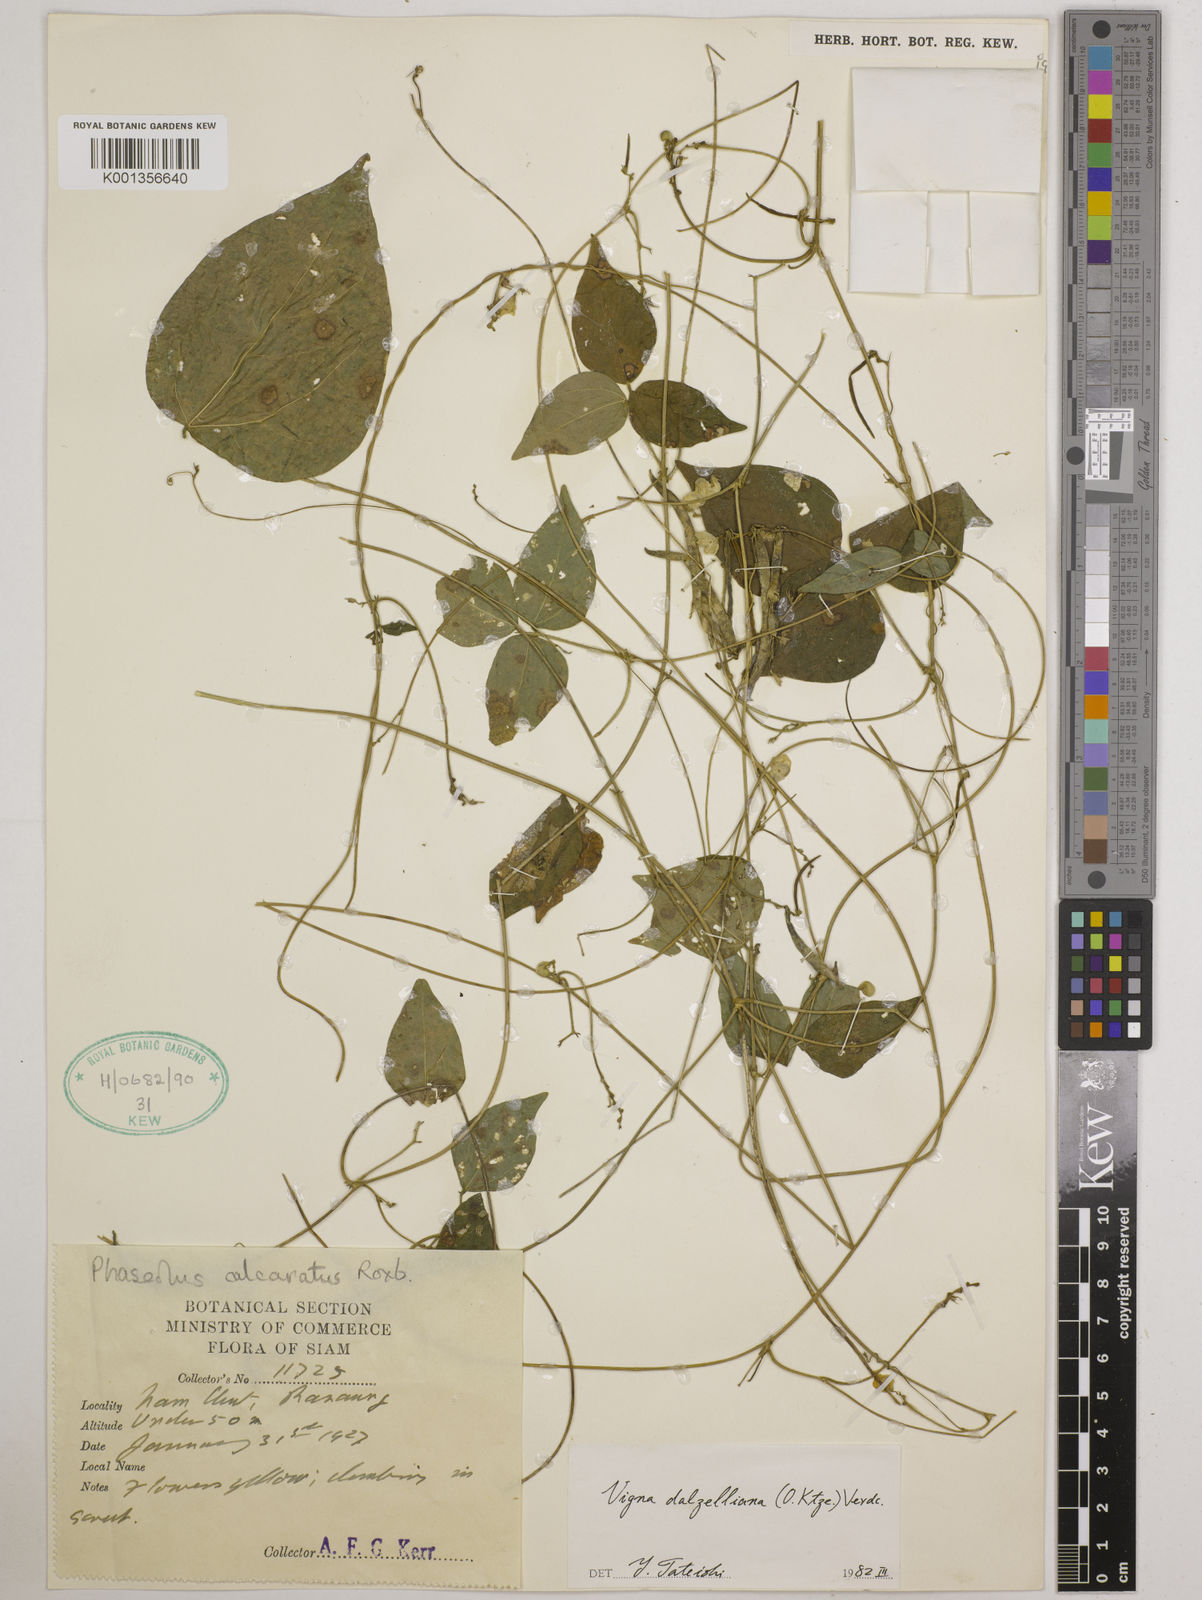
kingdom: Plantae
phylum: Tracheophyta
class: Magnoliopsida
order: Fabales
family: Fabaceae
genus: Vigna
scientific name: Vigna dalzelliana
